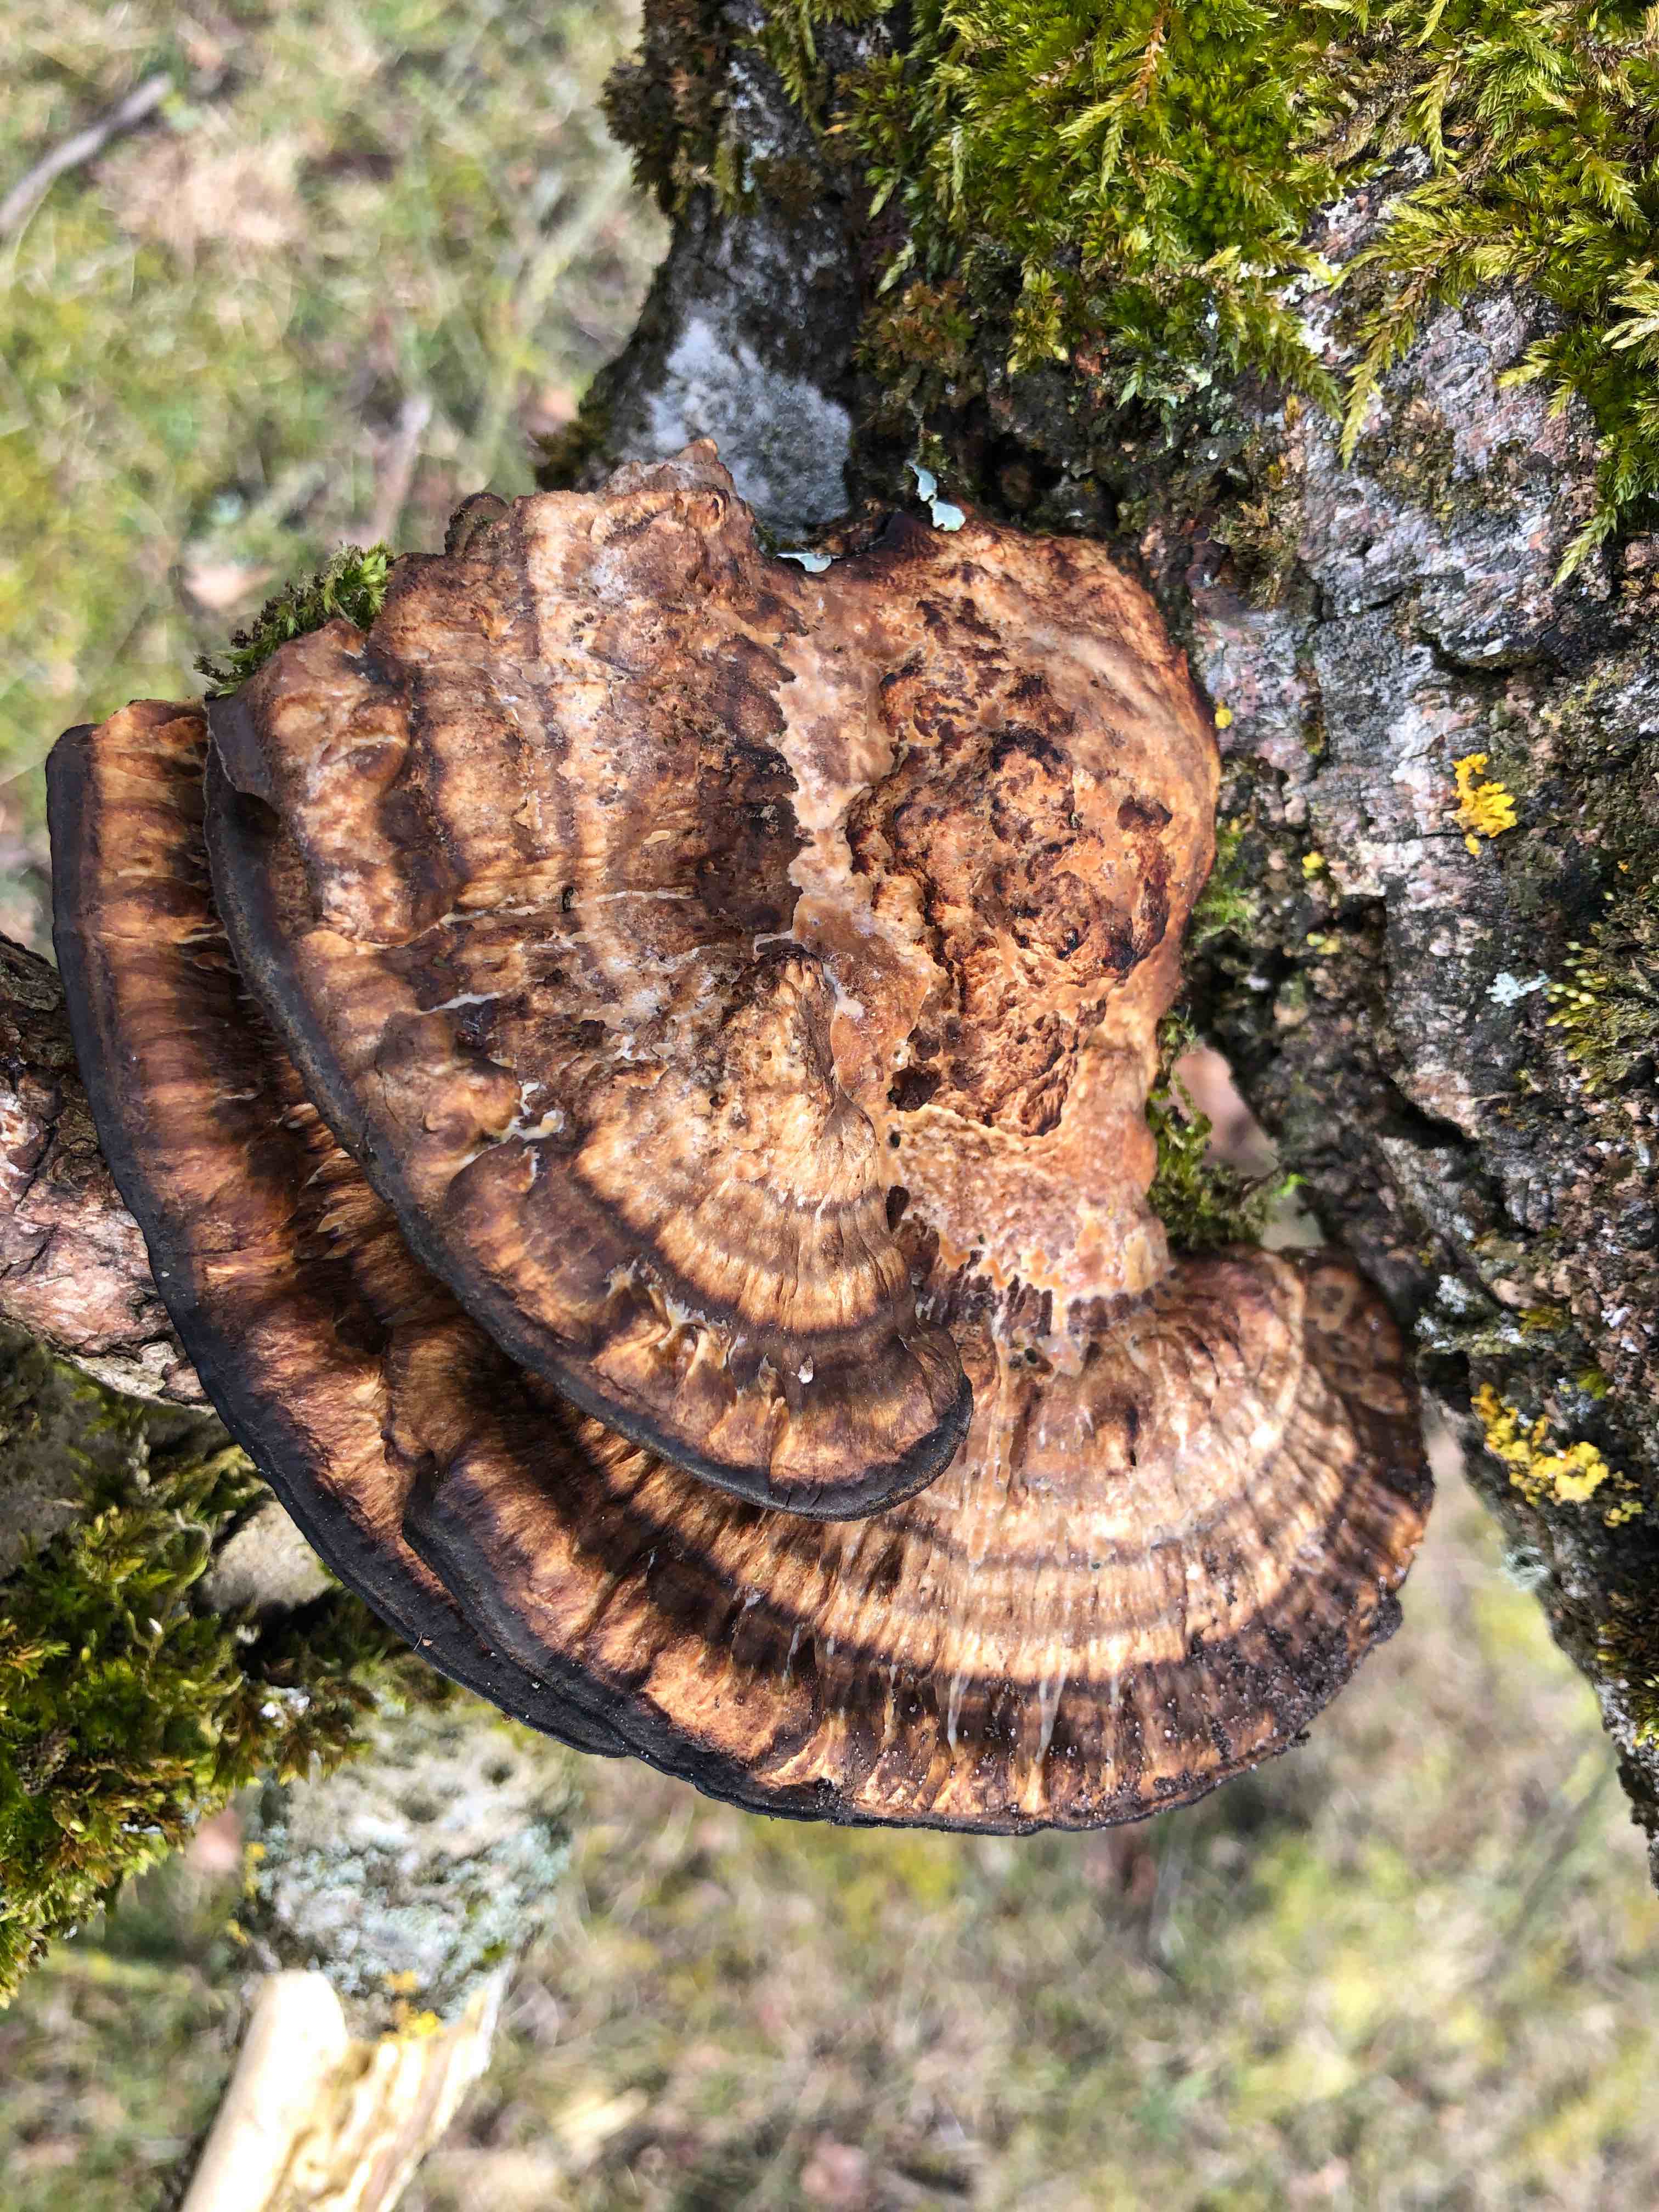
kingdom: Fungi
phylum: Basidiomycota
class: Agaricomycetes
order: Polyporales
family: Polyporaceae
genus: Daedaleopsis
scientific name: Daedaleopsis confragosa
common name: rødmende læderporesvamp
